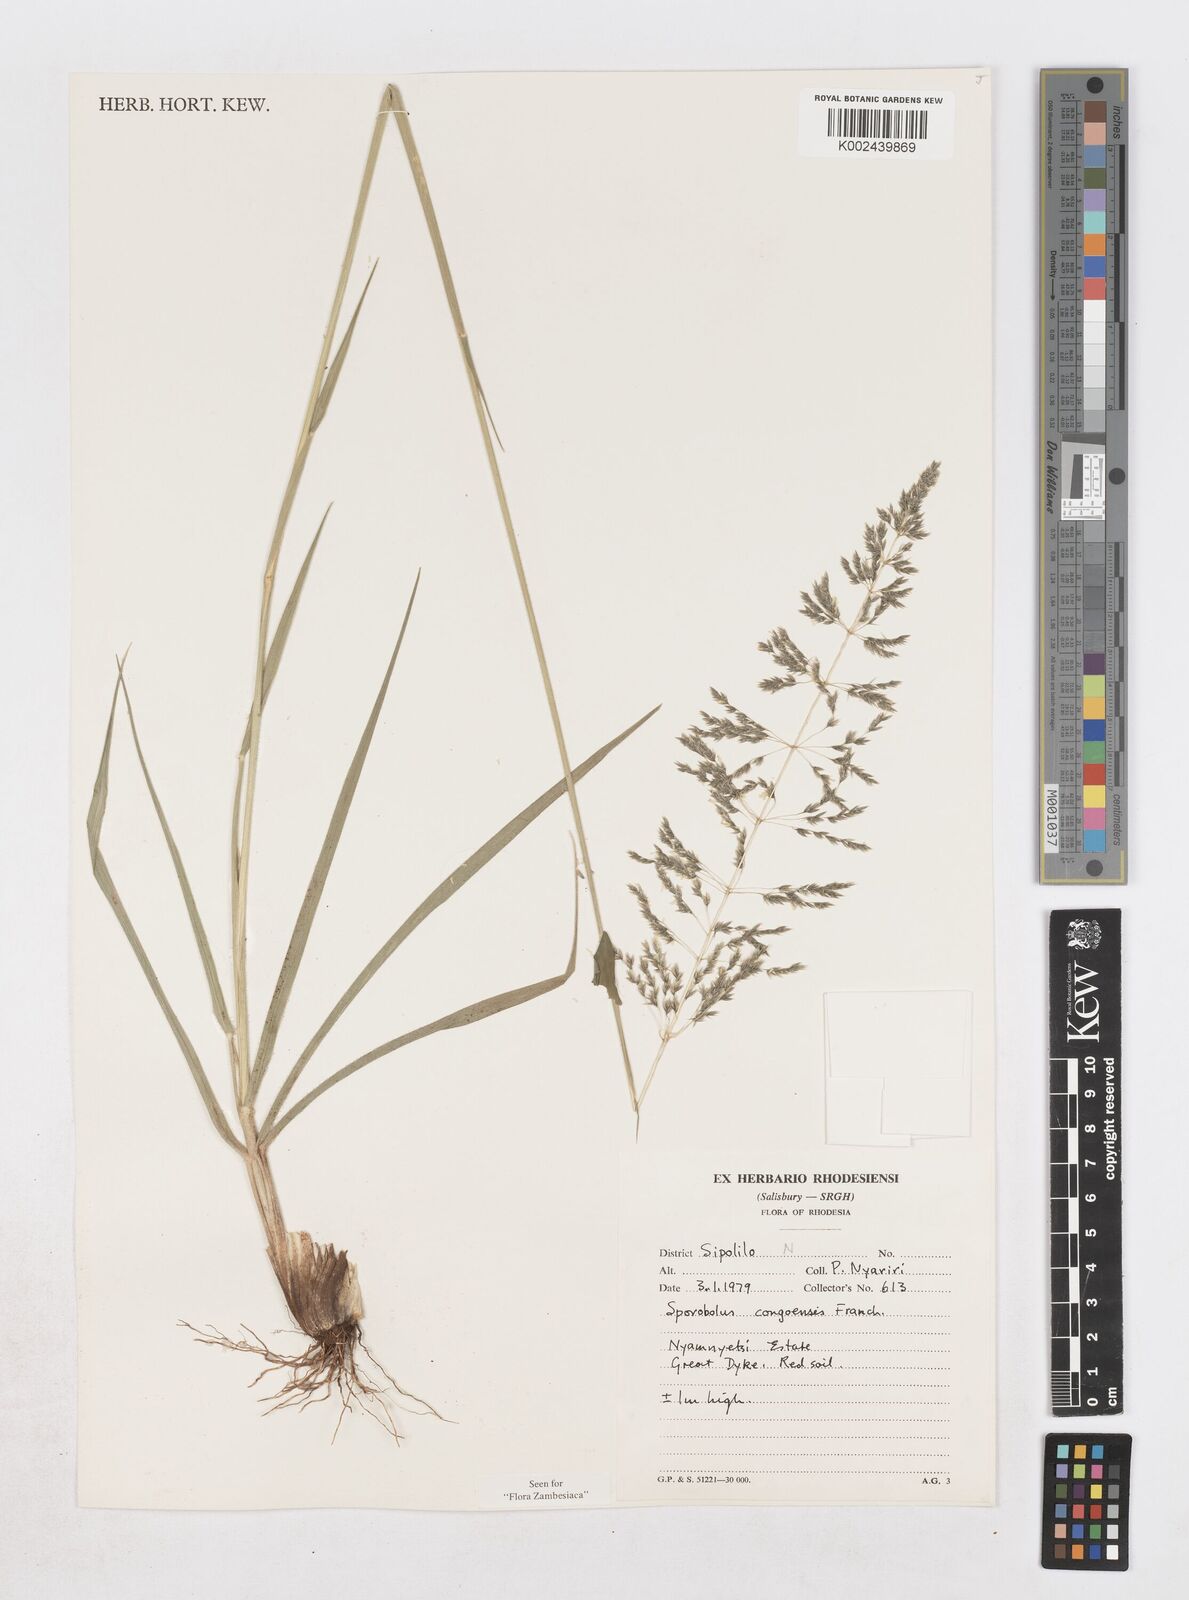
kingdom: Plantae
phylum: Tracheophyta
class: Liliopsida
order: Poales
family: Poaceae
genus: Sporobolus
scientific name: Sporobolus congoensis
